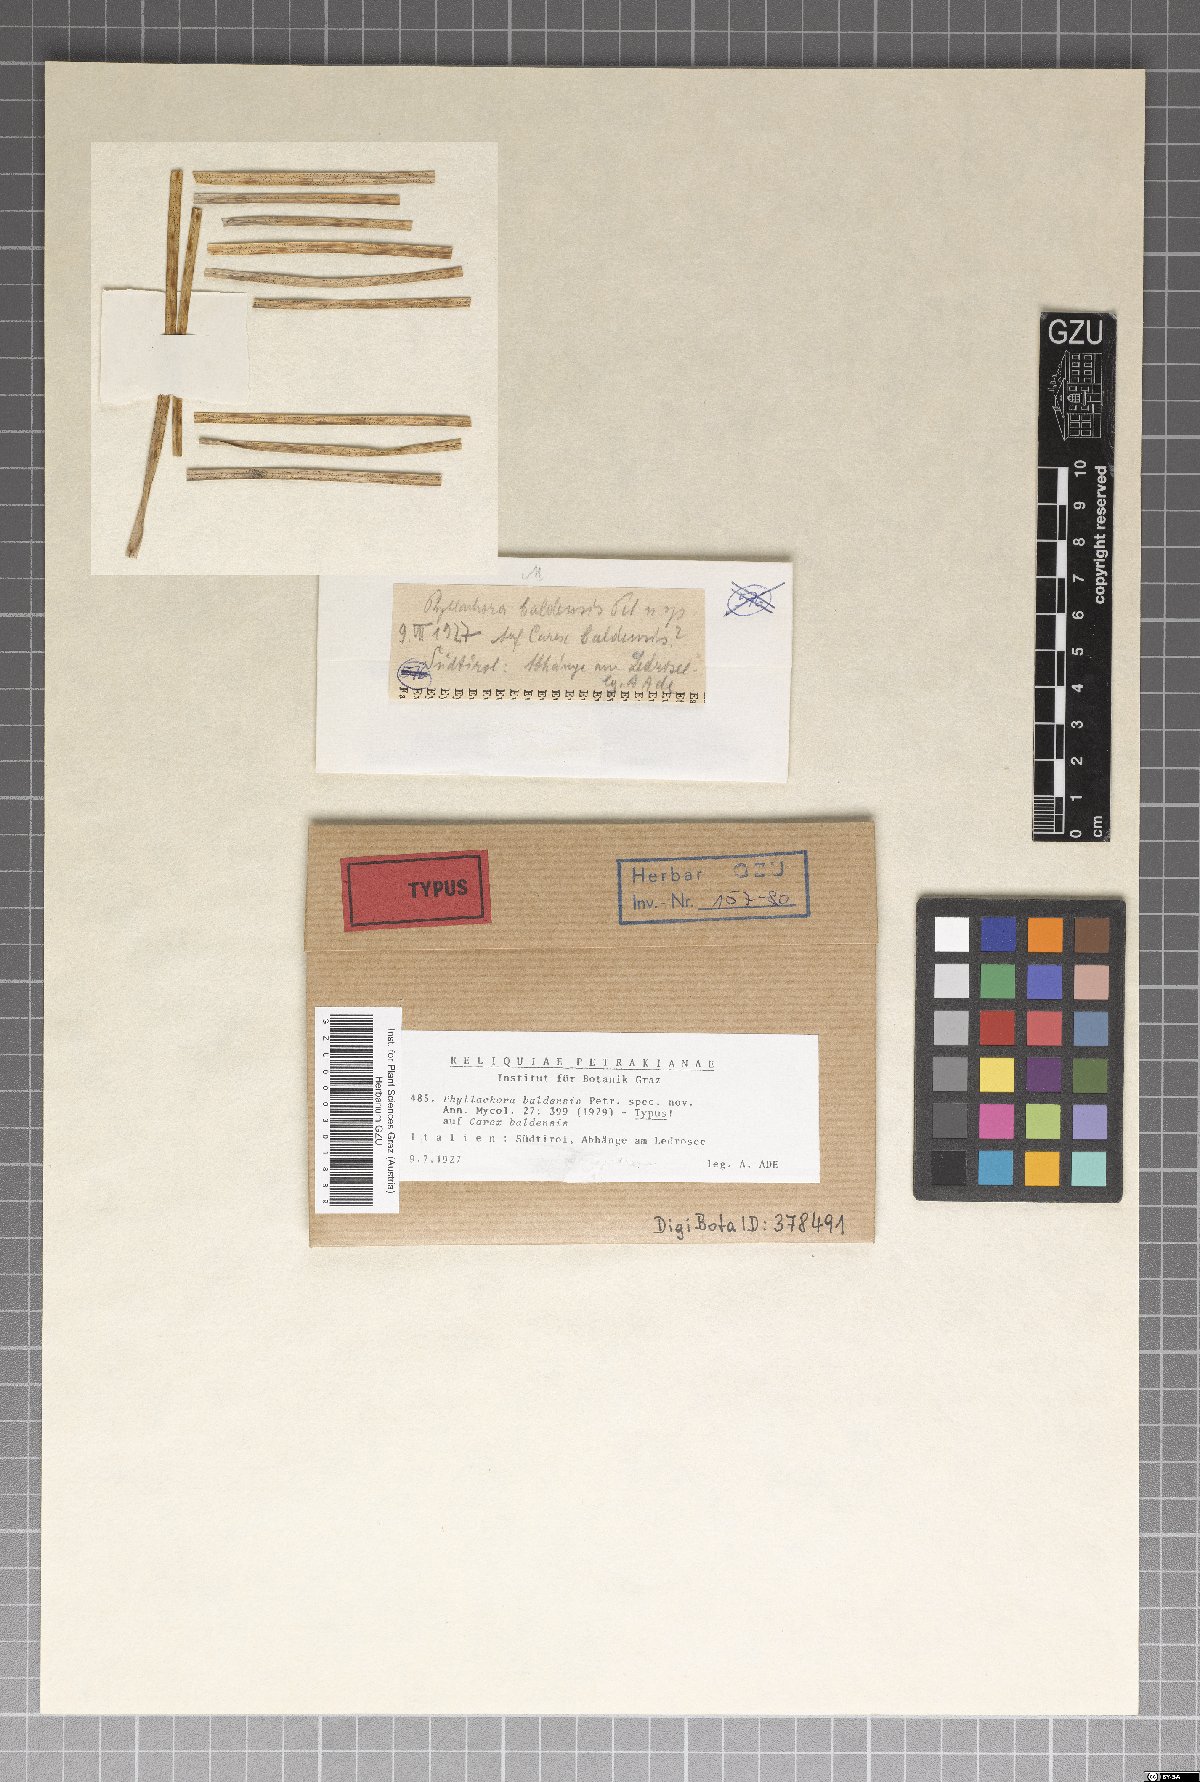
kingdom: Fungi
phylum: Ascomycota
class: Sordariomycetes
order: Phyllachorales
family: Phyllachoraceae
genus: Phyllachora
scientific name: Phyllachora baldensis
